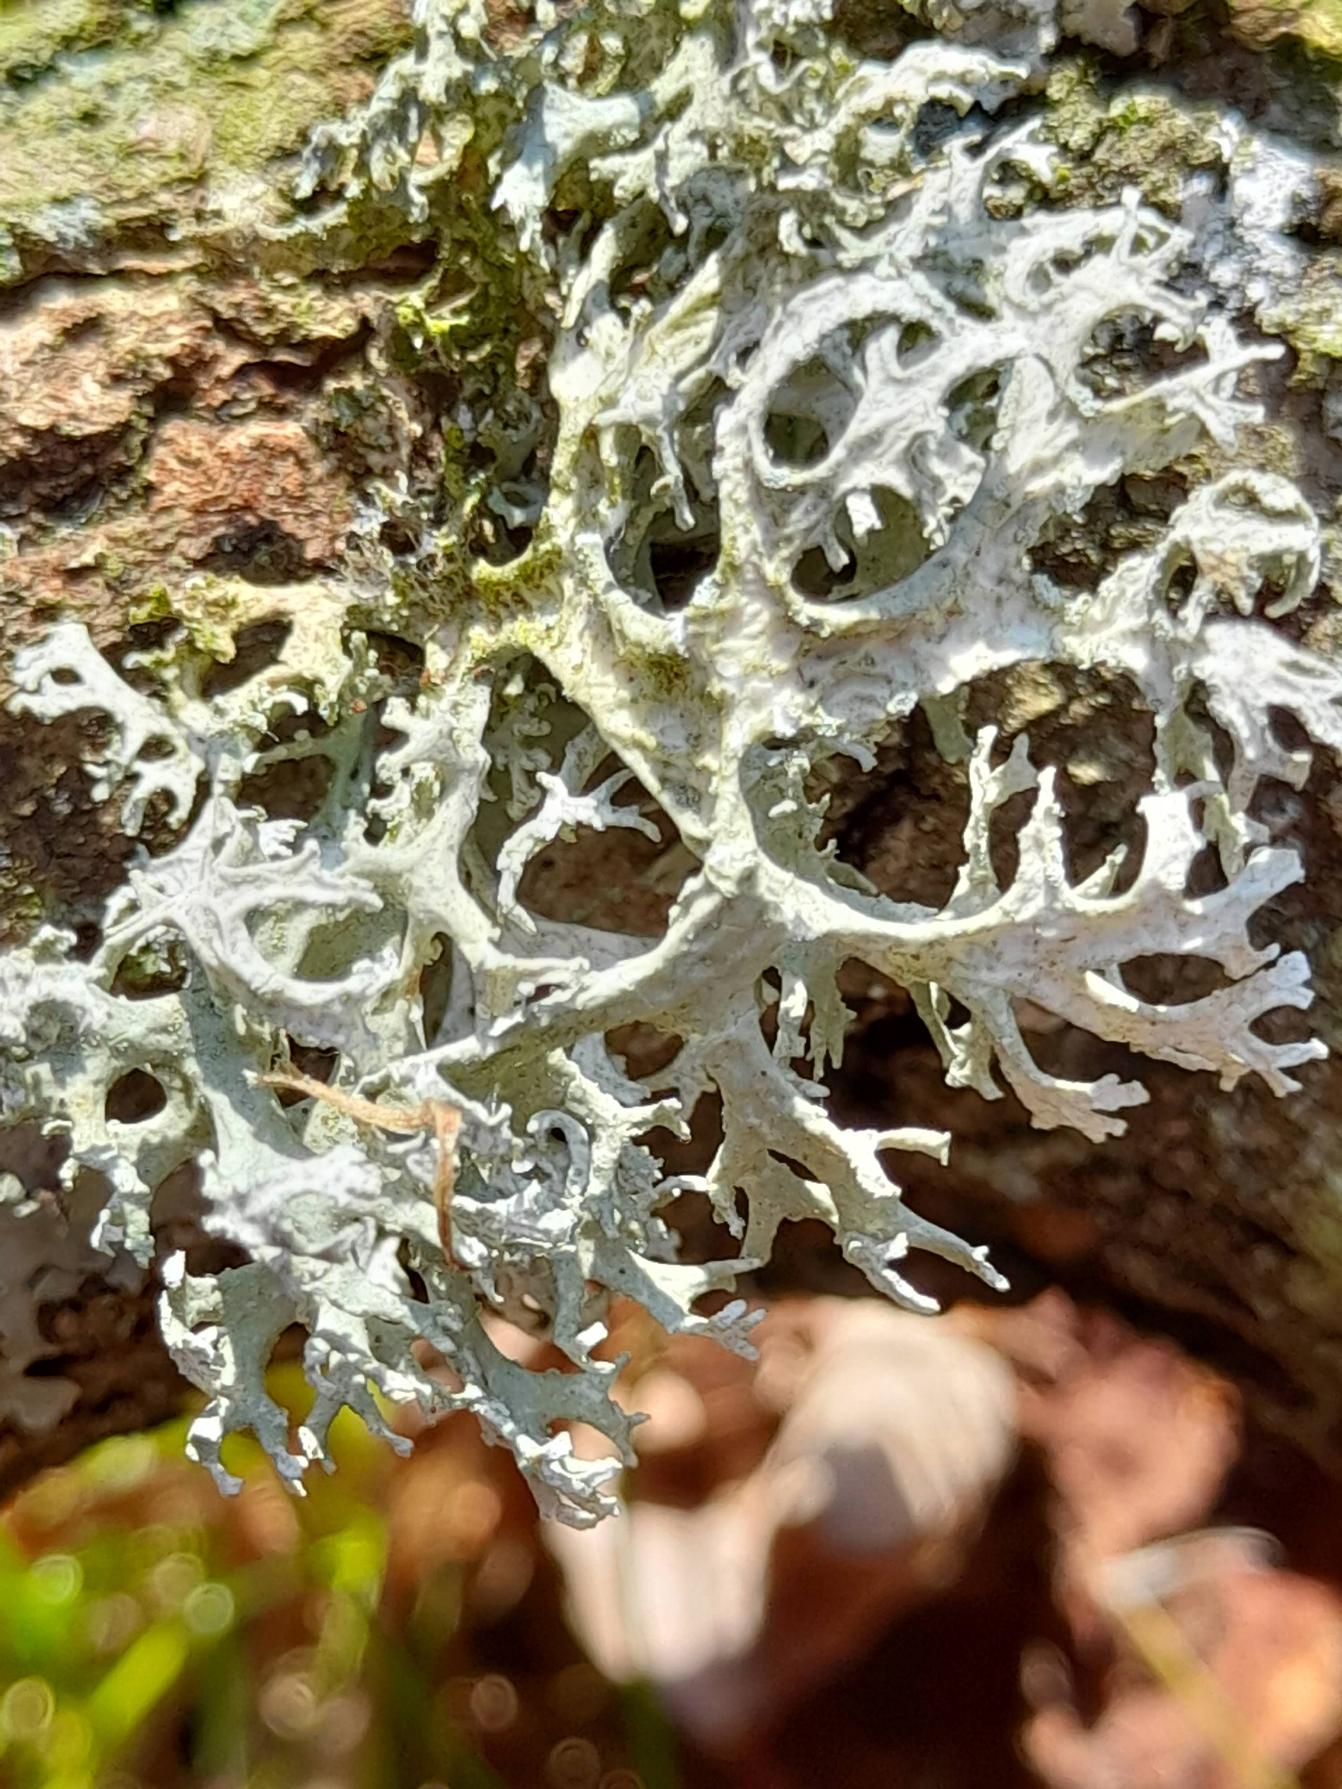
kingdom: Fungi
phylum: Ascomycota
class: Lecanoromycetes
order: Lecanorales
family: Parmeliaceae
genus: Evernia
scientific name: Evernia prunastri
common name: Almindelig slåenlav
